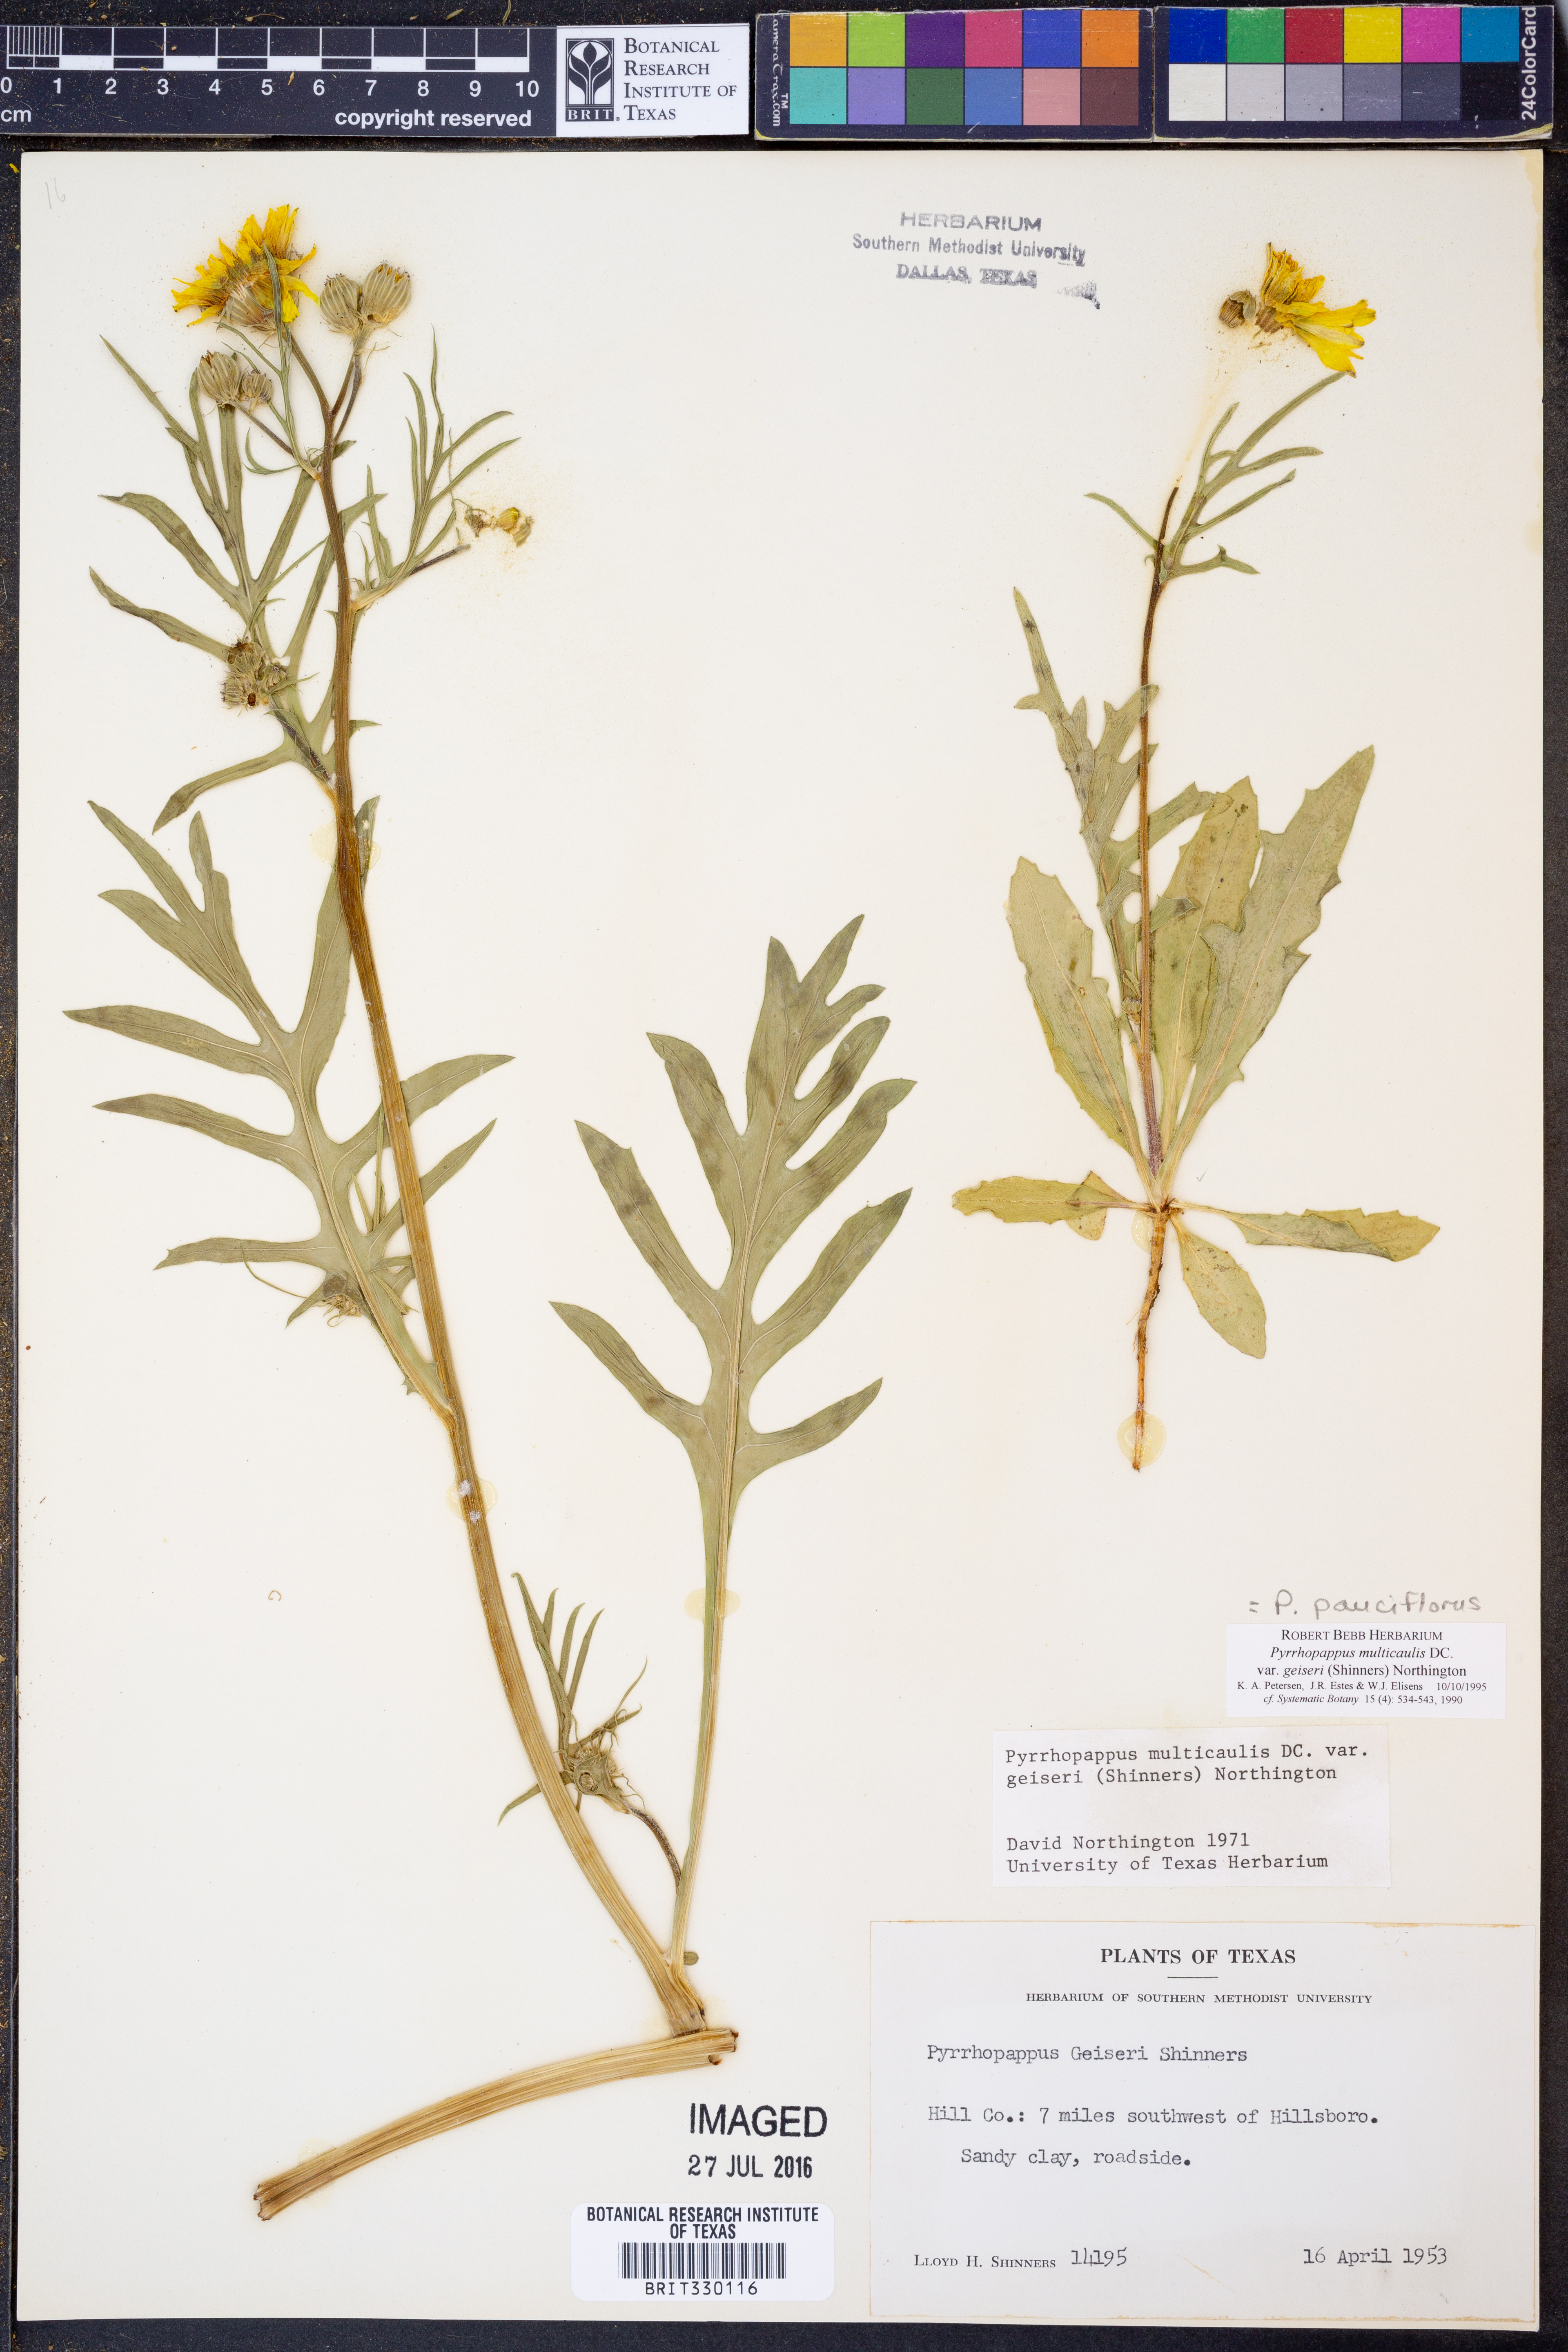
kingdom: Plantae
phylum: Tracheophyta
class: Magnoliopsida
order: Asterales
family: Asteraceae
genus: Pyrrhopappus
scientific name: Pyrrhopappus pauciflorus
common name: Texas false dandelion
